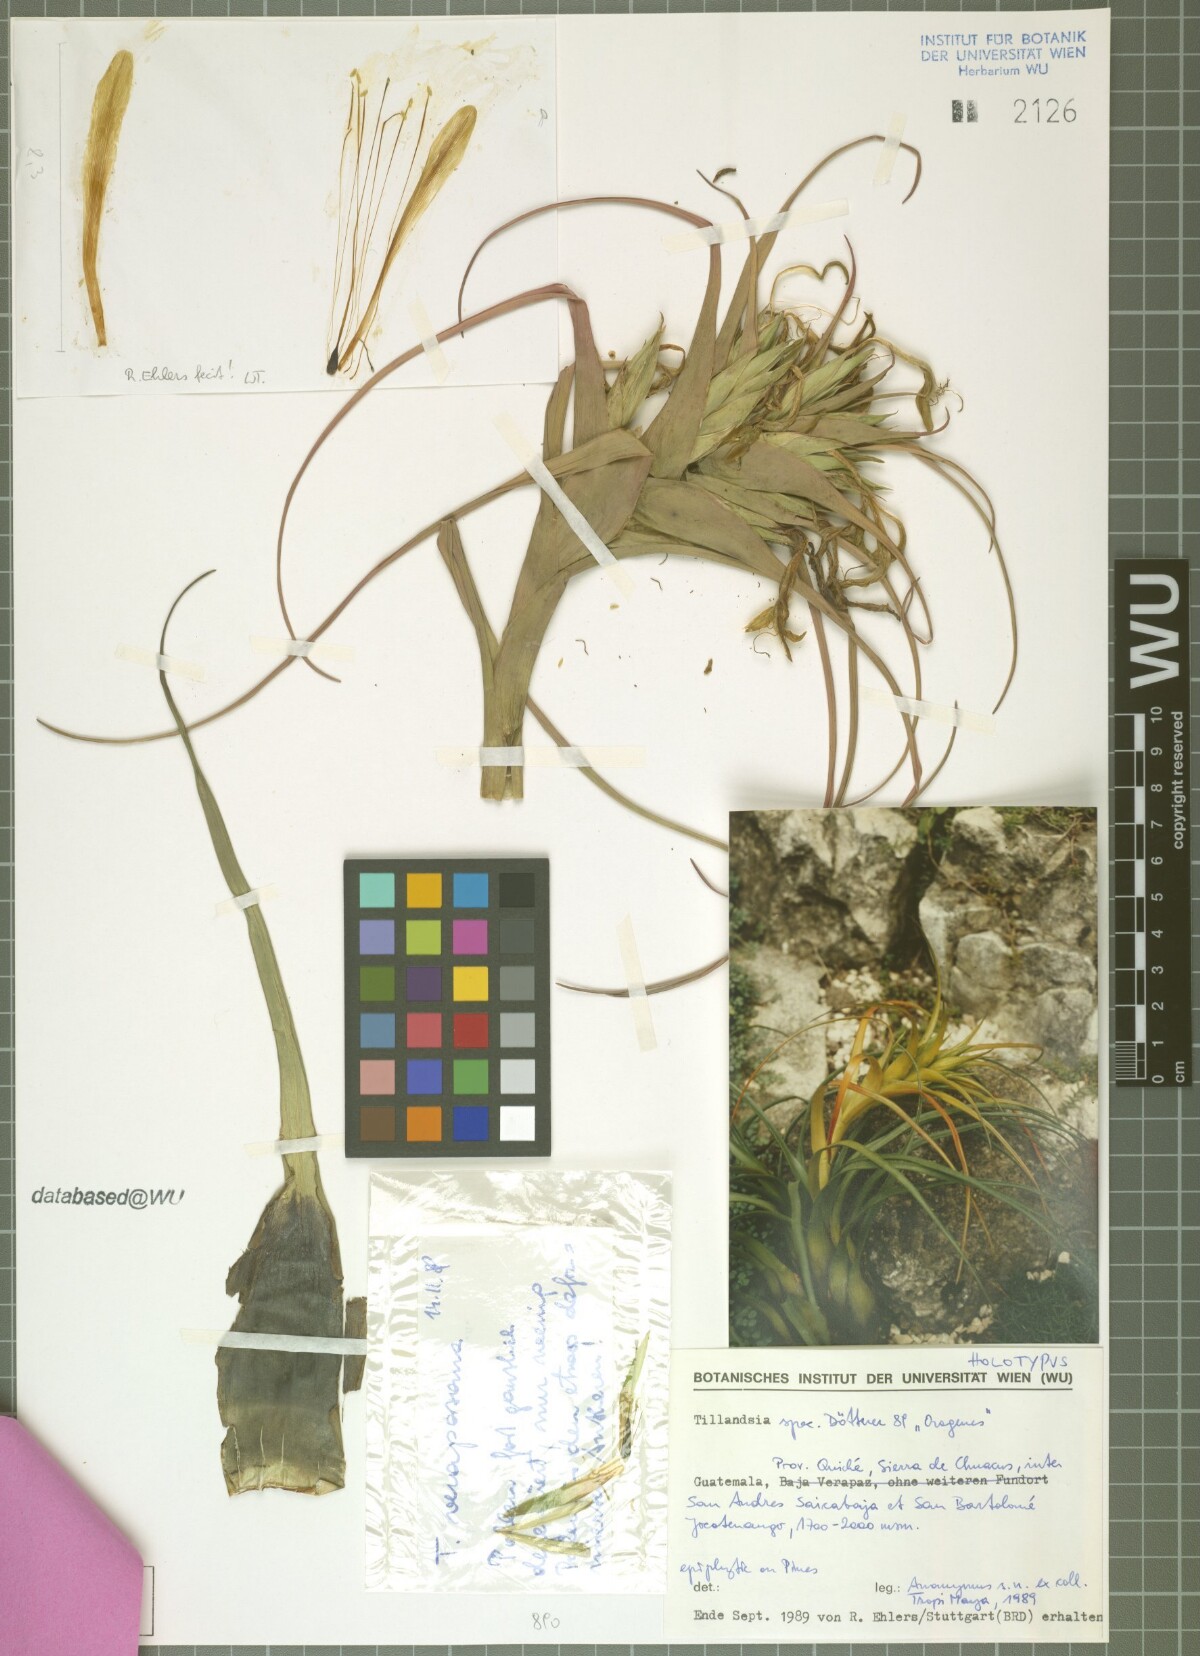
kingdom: Plantae
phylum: Tracheophyta
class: Liliopsida
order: Poales
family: Bromeliaceae
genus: Tillandsia
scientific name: Tillandsia trigalensis
